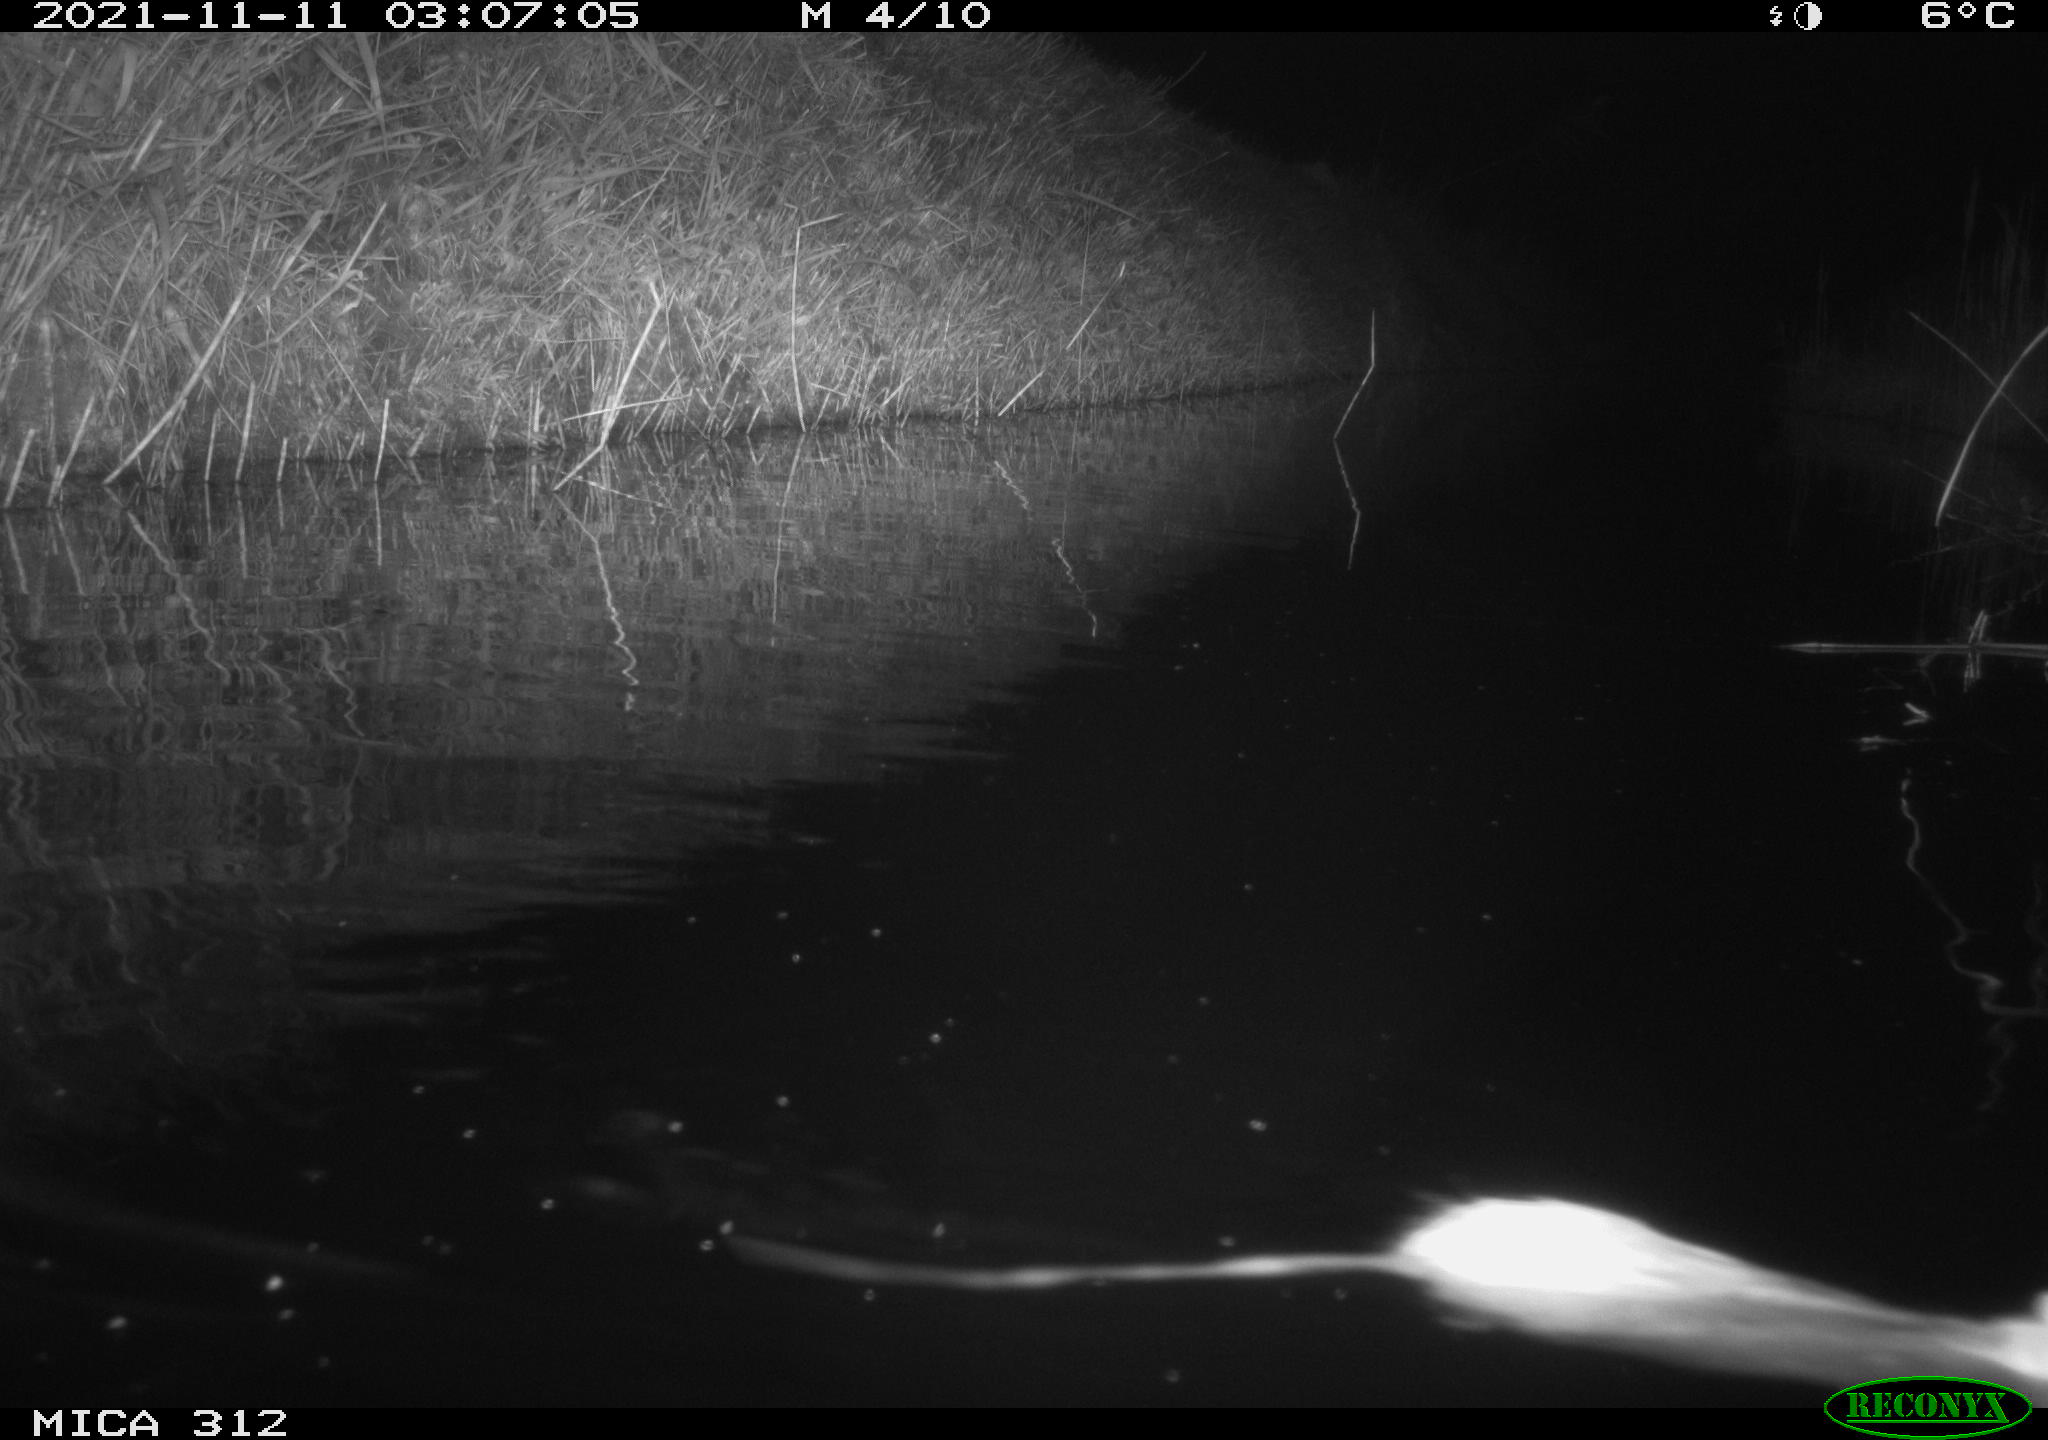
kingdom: Animalia
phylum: Chordata
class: Mammalia
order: Rodentia
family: Muridae
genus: Rattus
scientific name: Rattus norvegicus
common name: Brown rat
